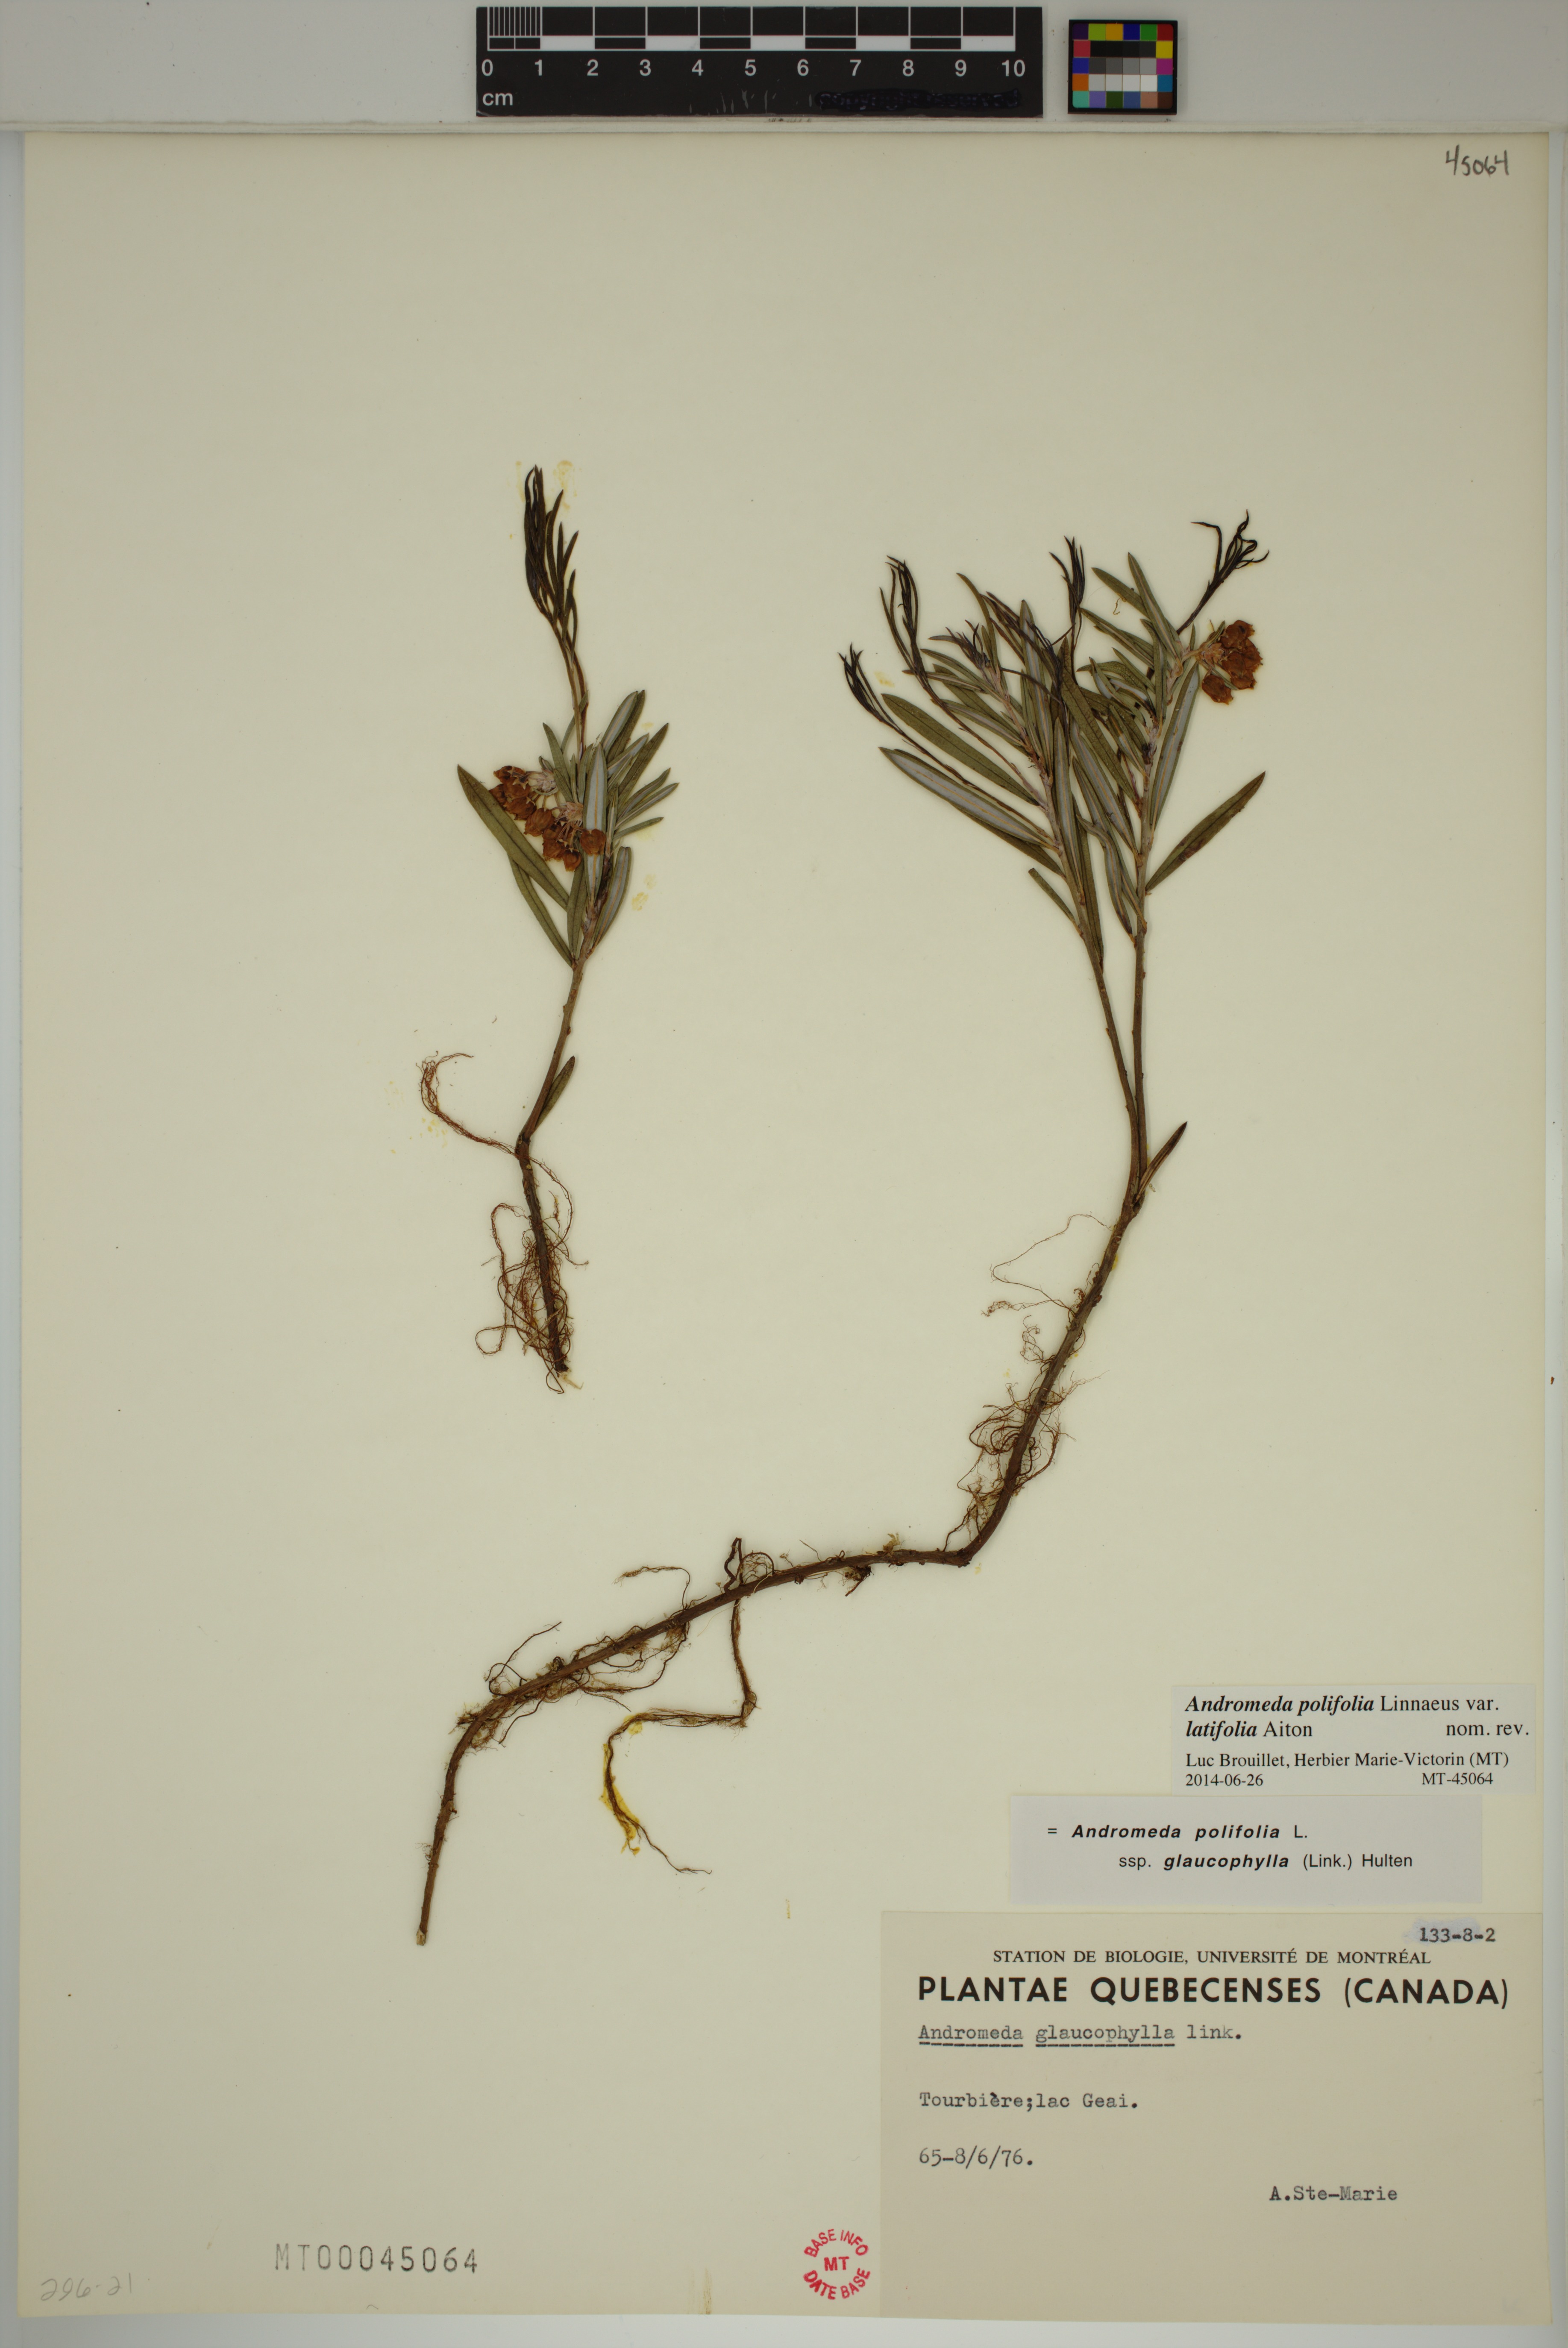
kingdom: Plantae
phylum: Tracheophyta
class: Magnoliopsida
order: Ericales
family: Ericaceae
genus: Andromeda
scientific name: Andromeda polifolia
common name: Bog-rosemary
